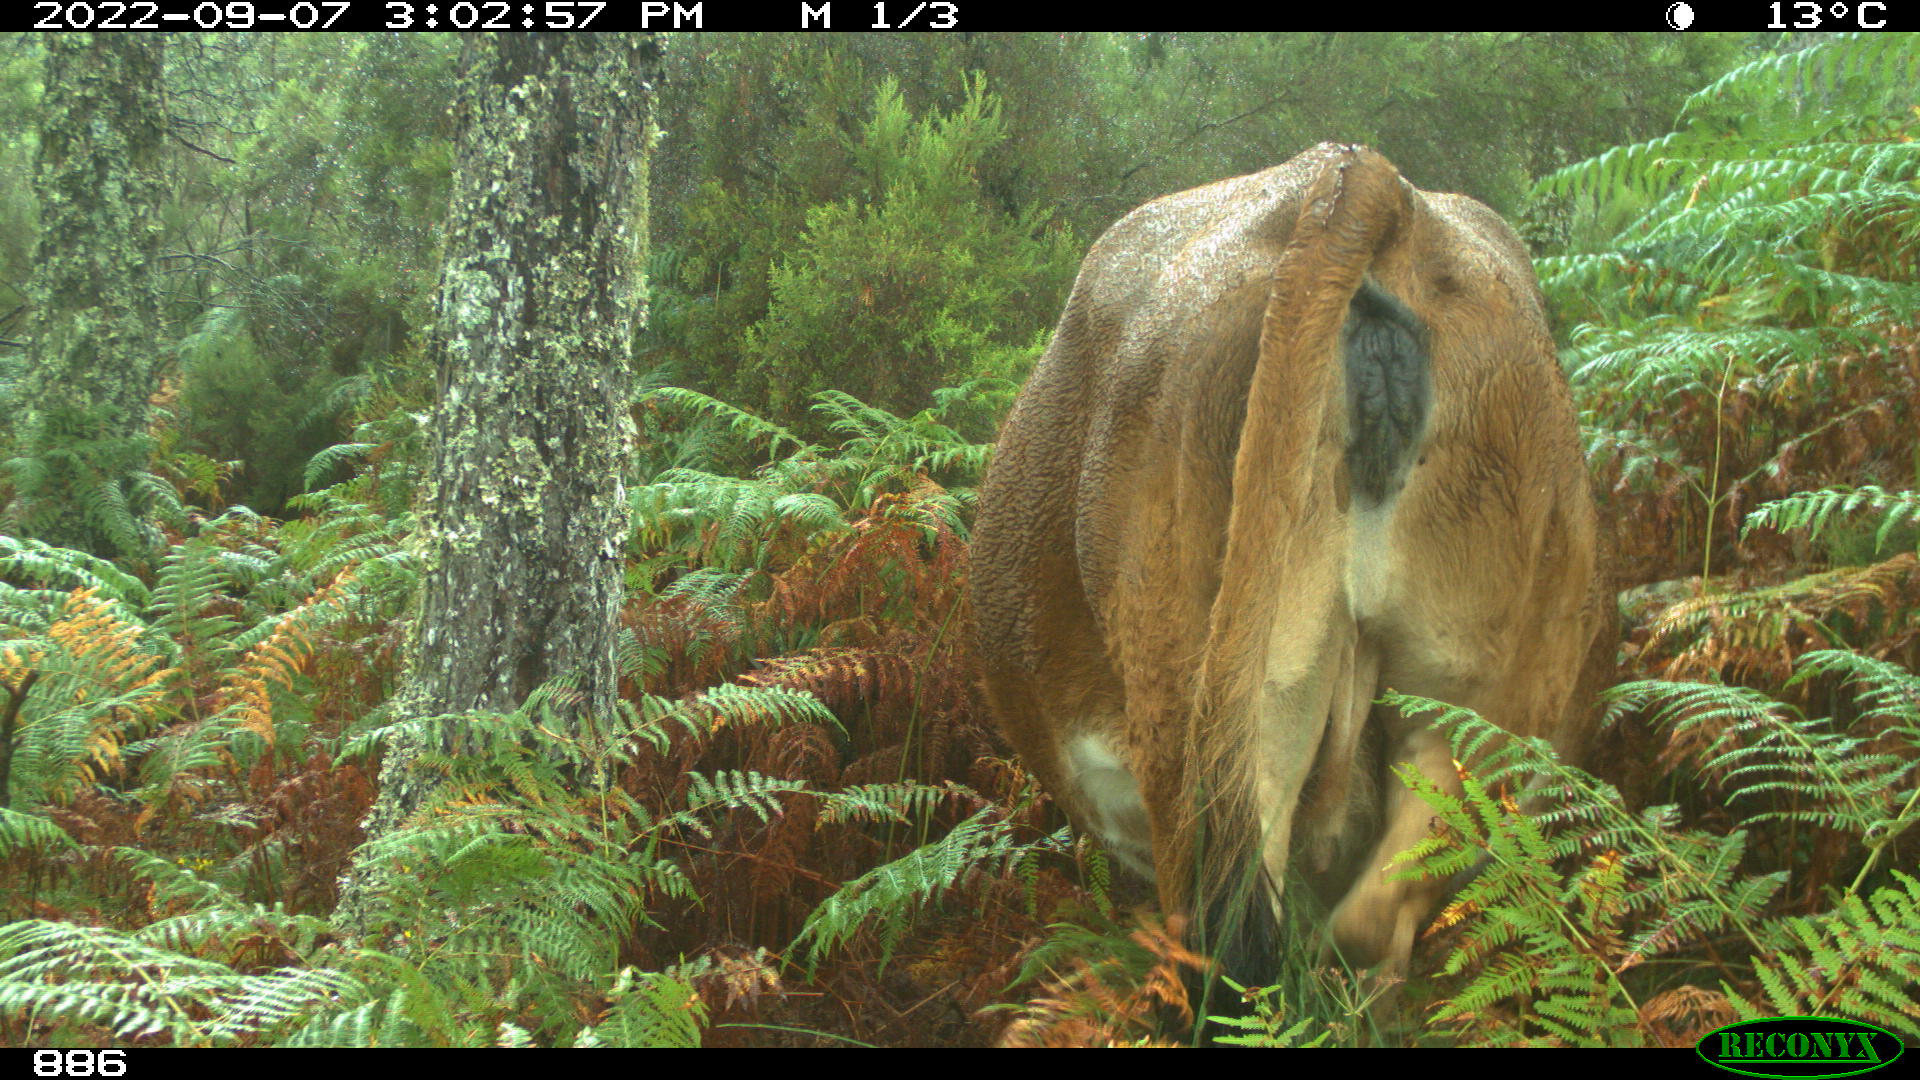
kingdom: Animalia
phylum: Chordata
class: Mammalia
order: Artiodactyla
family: Bovidae
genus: Bos
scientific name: Bos taurus
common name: Domesticated cattle
